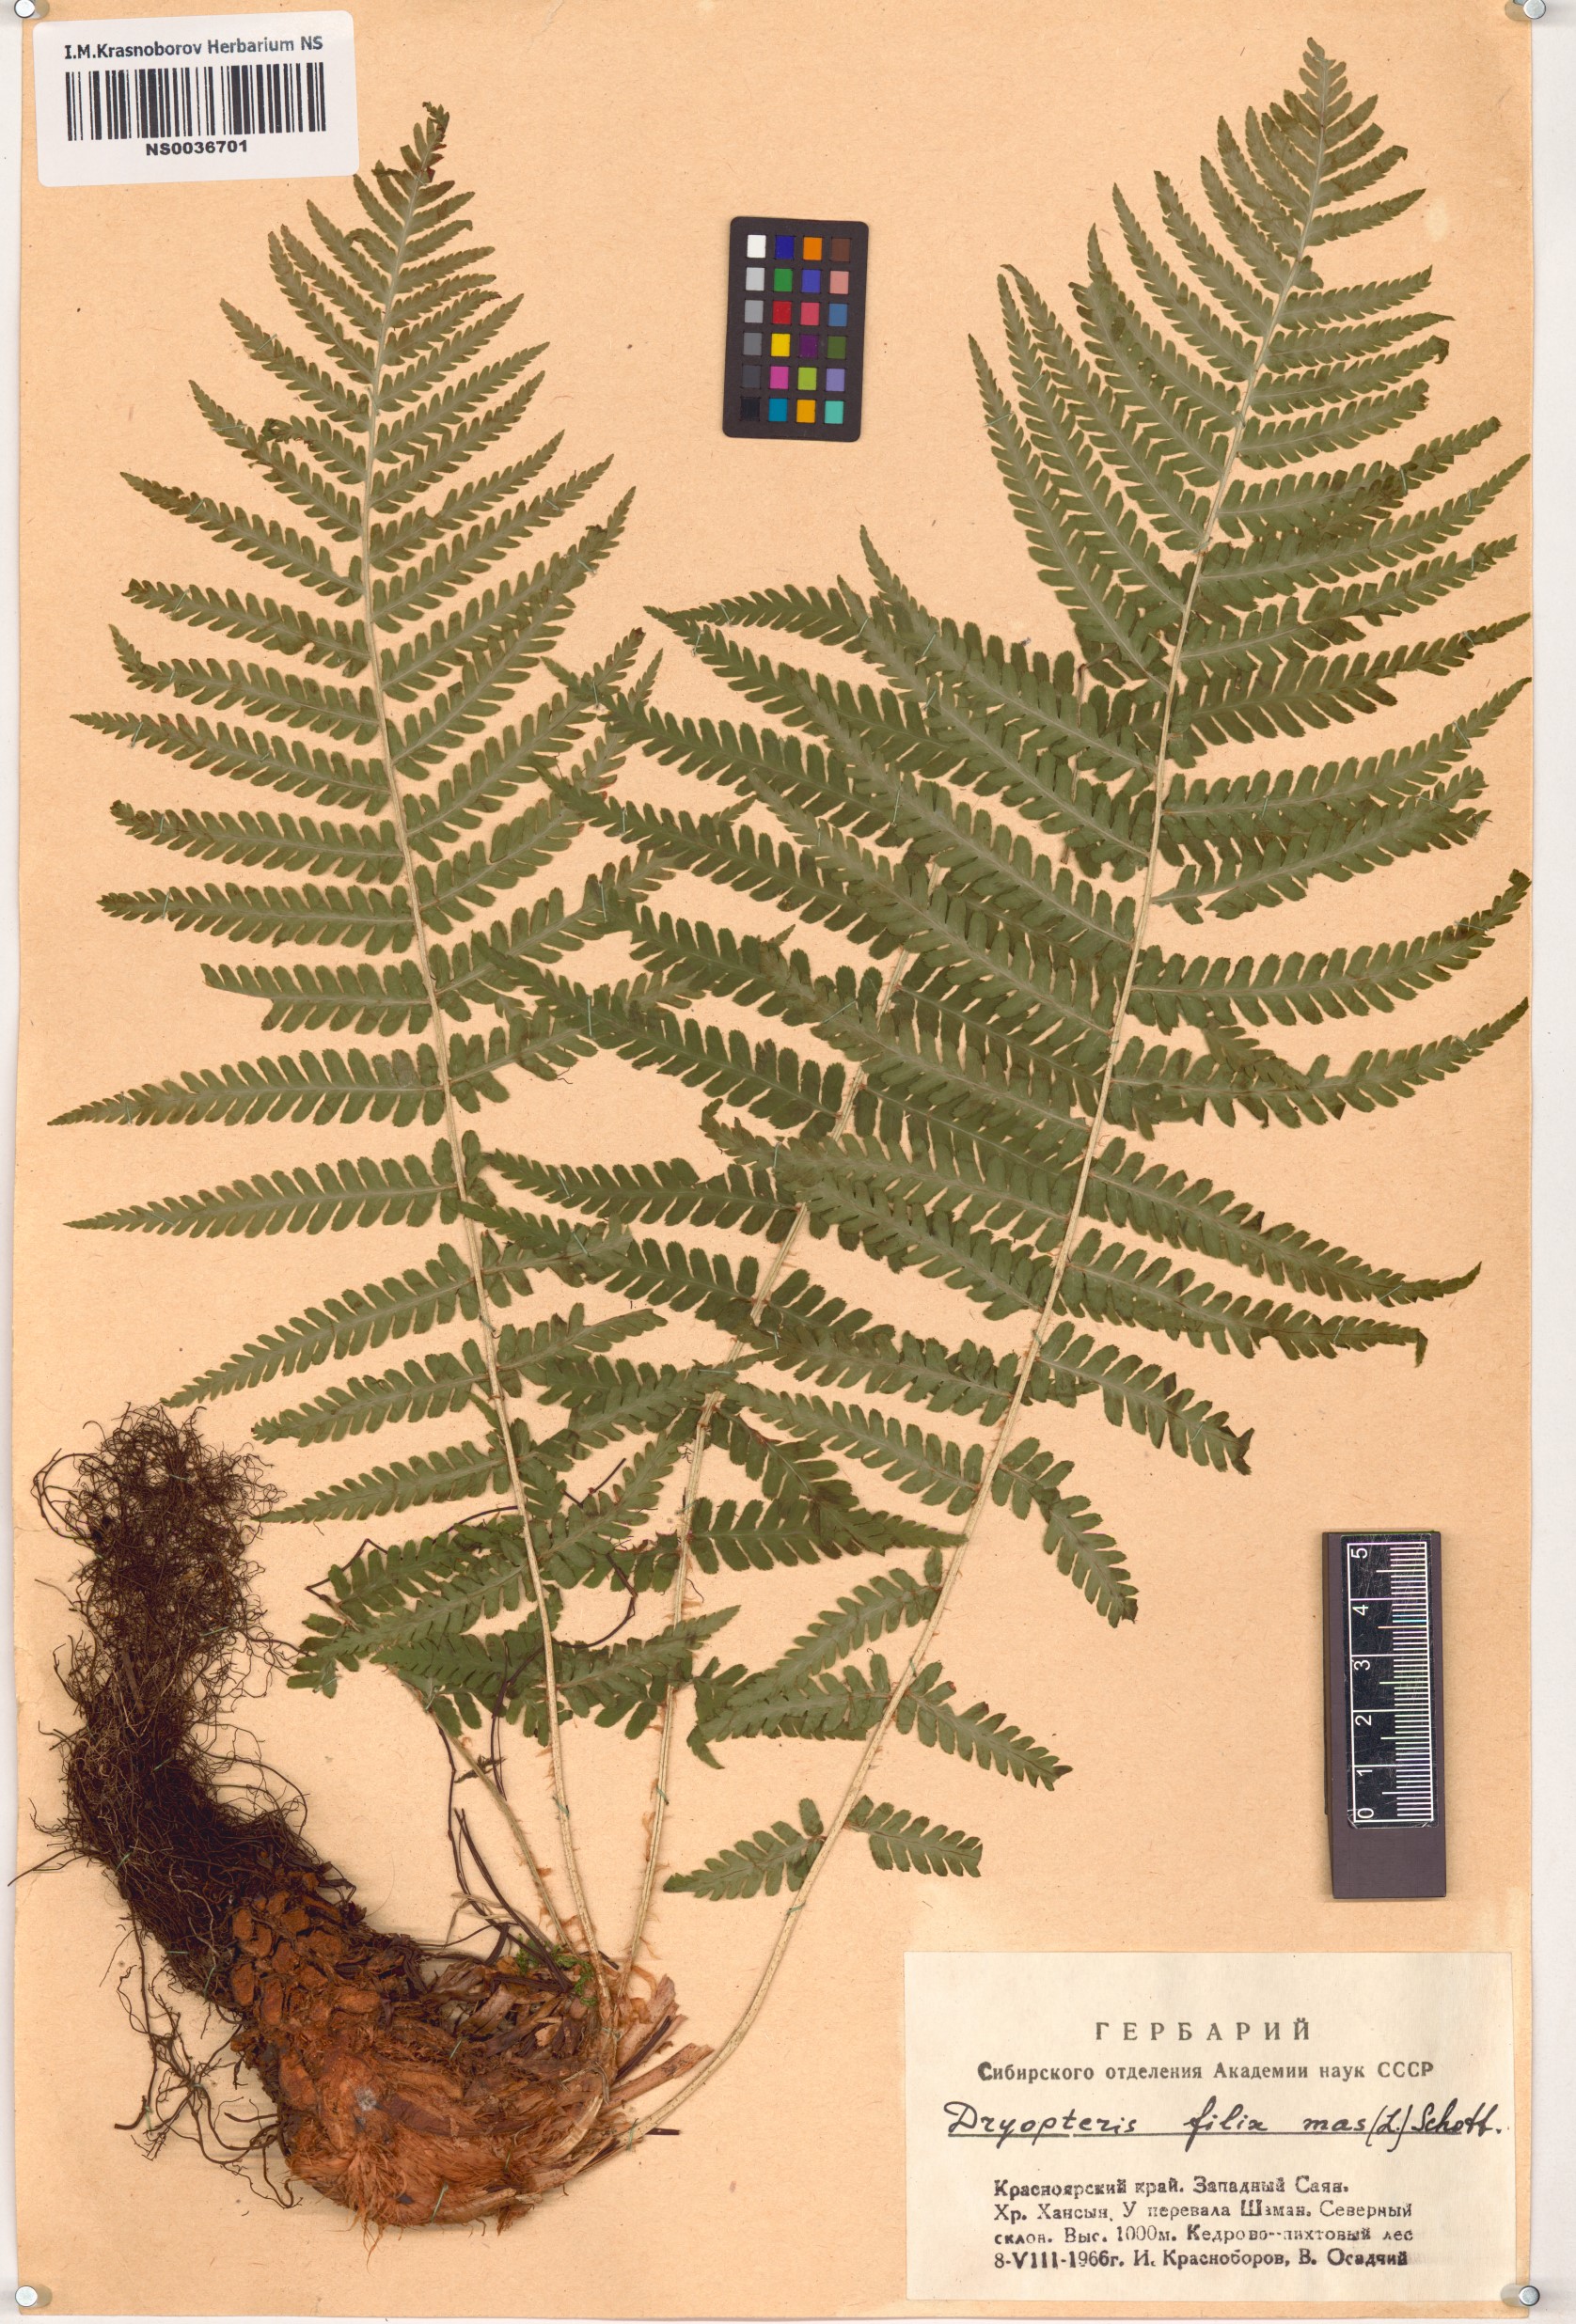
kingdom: Plantae
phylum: Tracheophyta
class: Polypodiopsida
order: Polypodiales
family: Dryopteridaceae
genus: Dryopteris
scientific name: Dryopteris filix-mas
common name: Male fern
